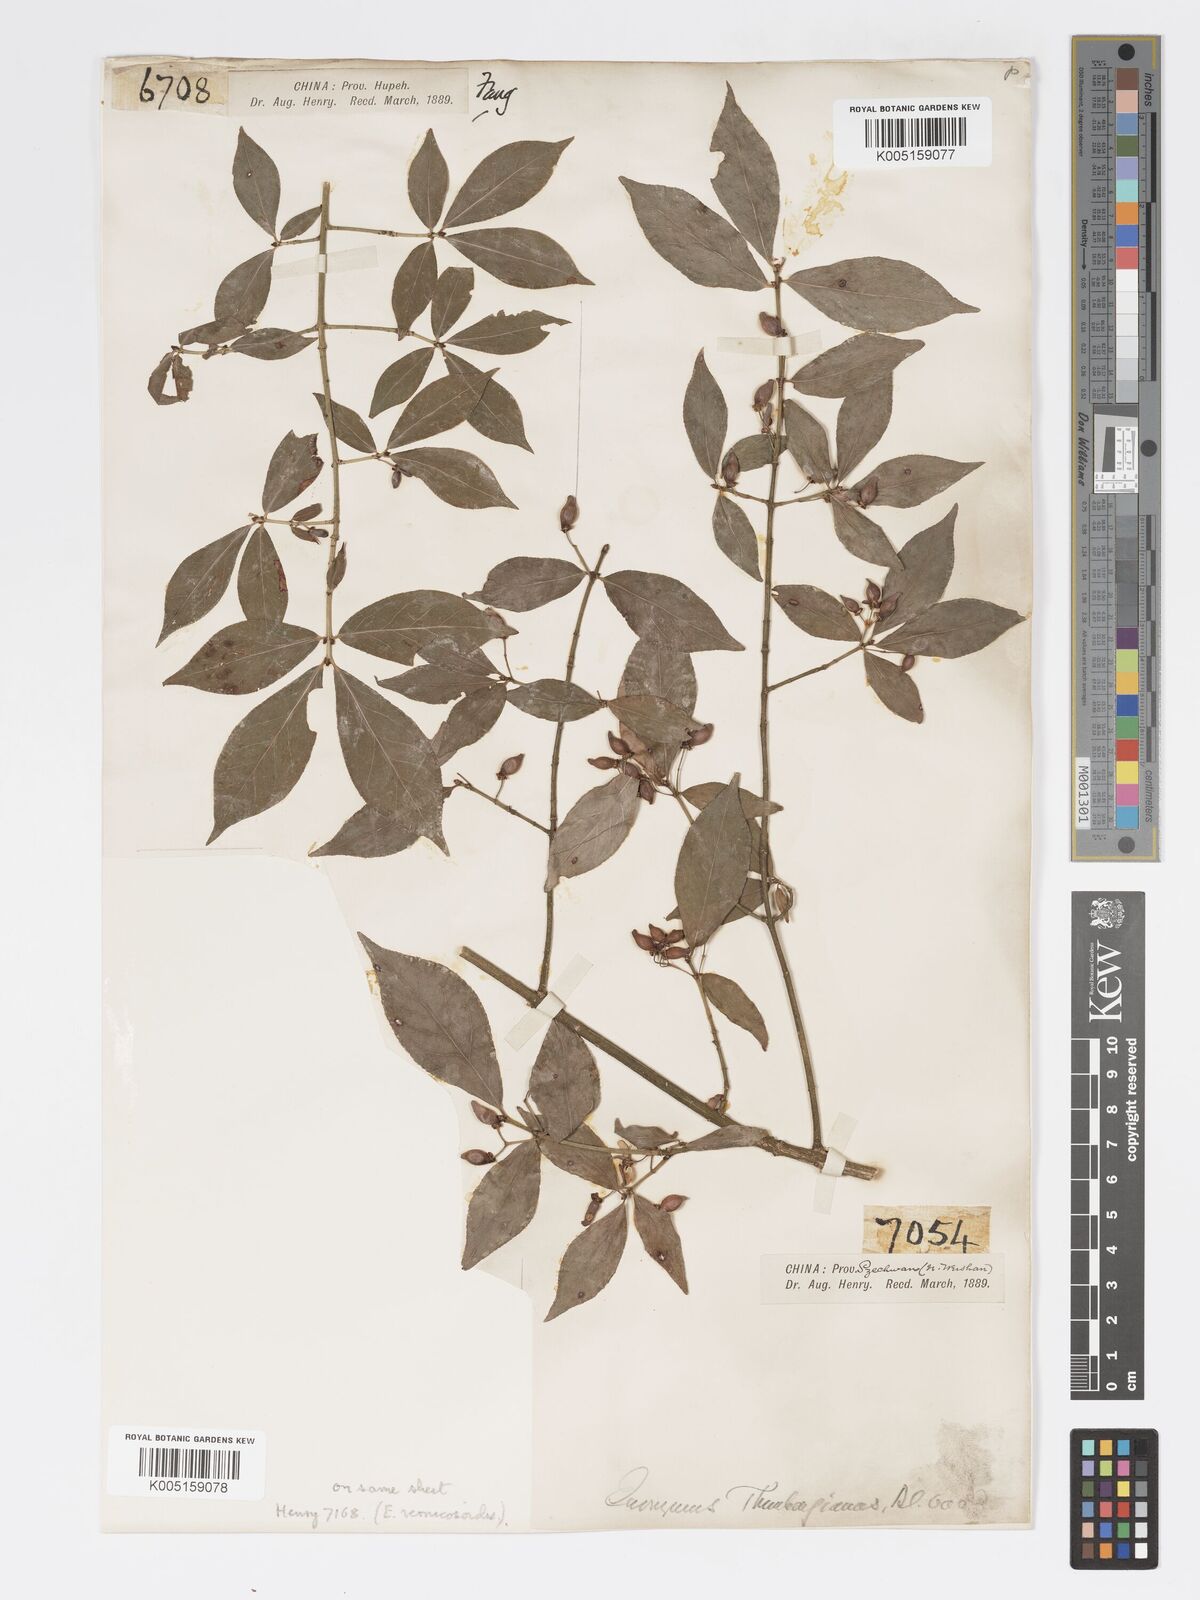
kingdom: Plantae
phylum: Tracheophyta
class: Magnoliopsida
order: Celastrales
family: Celastraceae
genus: Euonymus
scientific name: Euonymus
